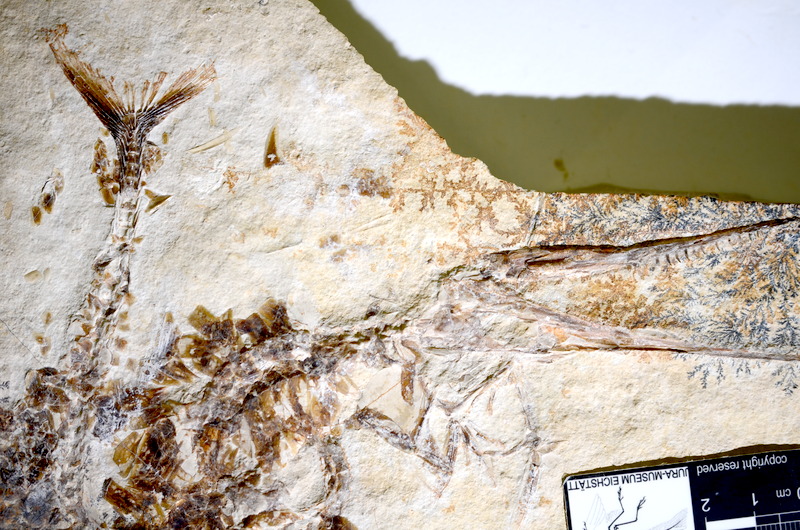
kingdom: Animalia
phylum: Chordata
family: Aspidorhynchidae
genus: Belonostomus
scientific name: Belonostomus tenuirostris
